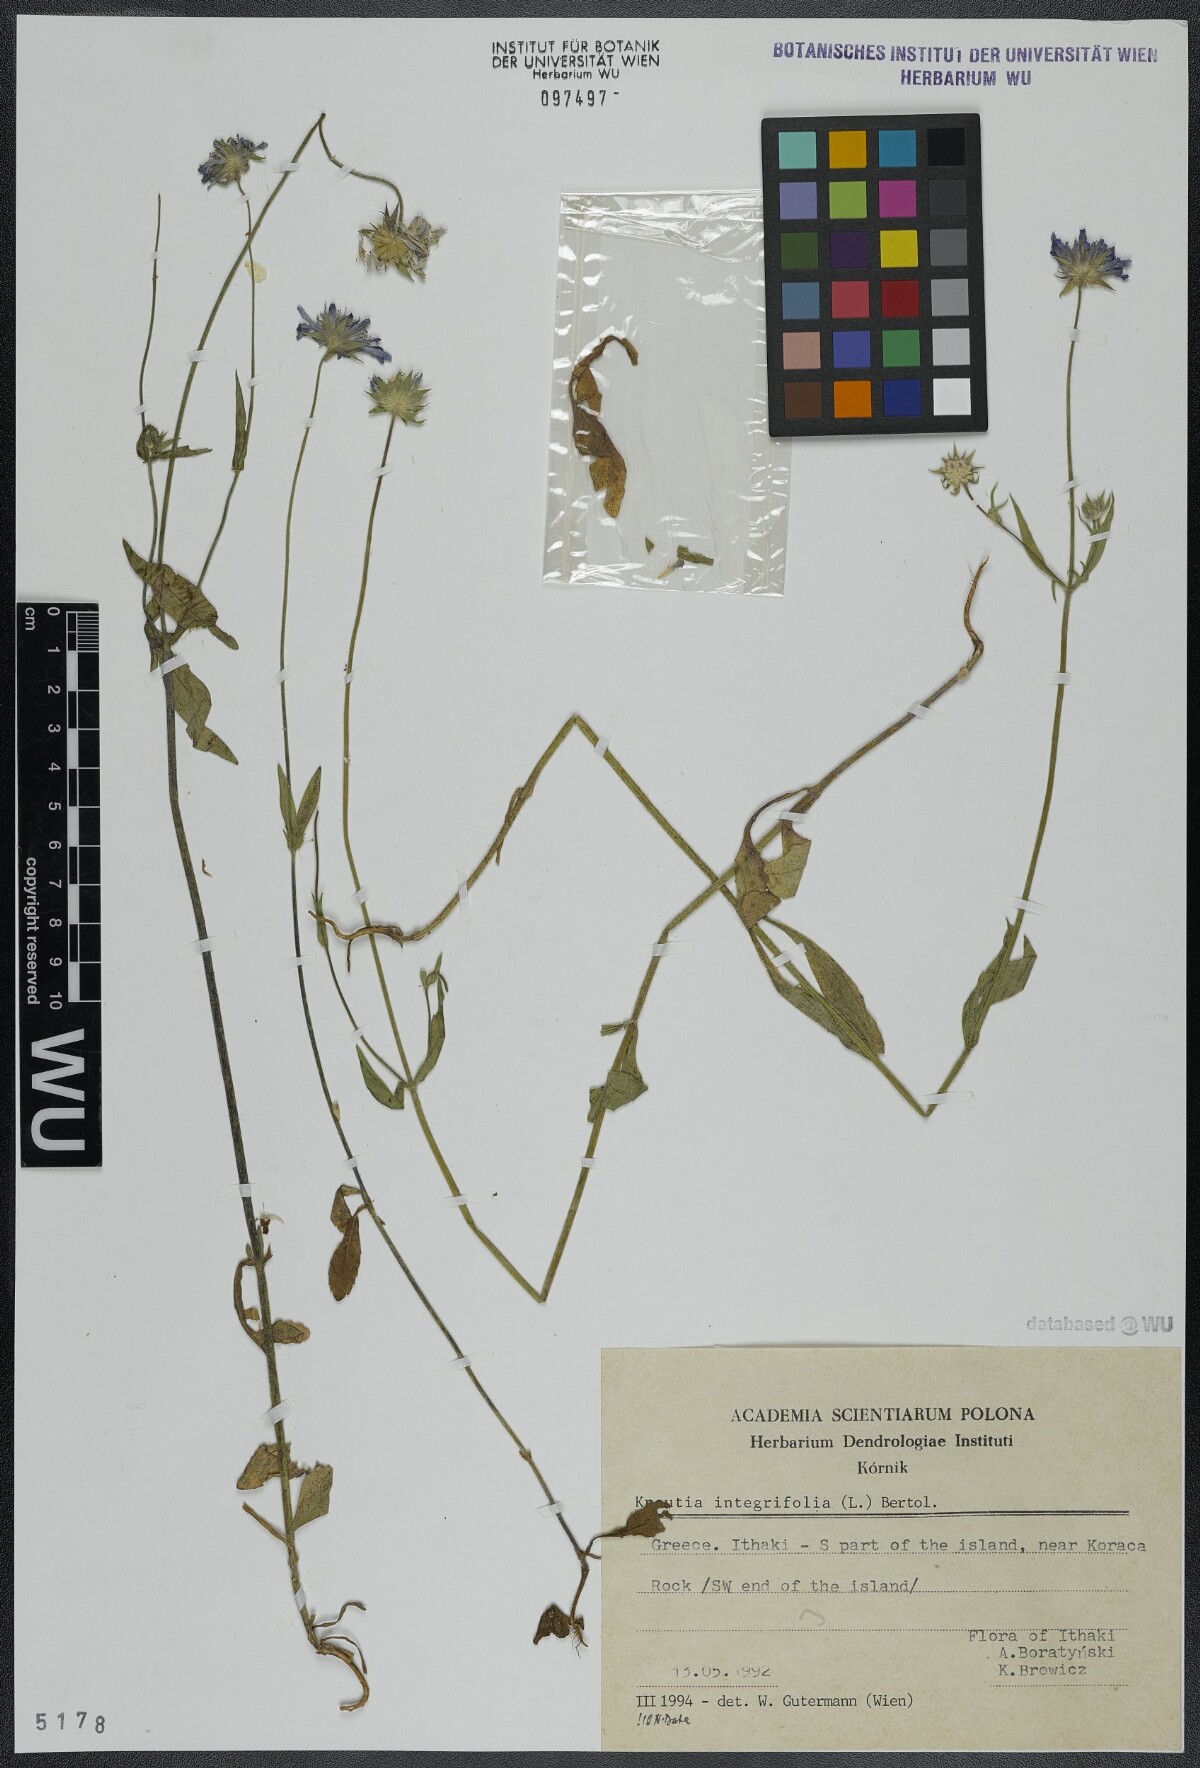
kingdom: Plantae
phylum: Tracheophyta
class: Magnoliopsida
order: Dipsacales
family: Caprifoliaceae
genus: Knautia
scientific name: Knautia integrifolia
